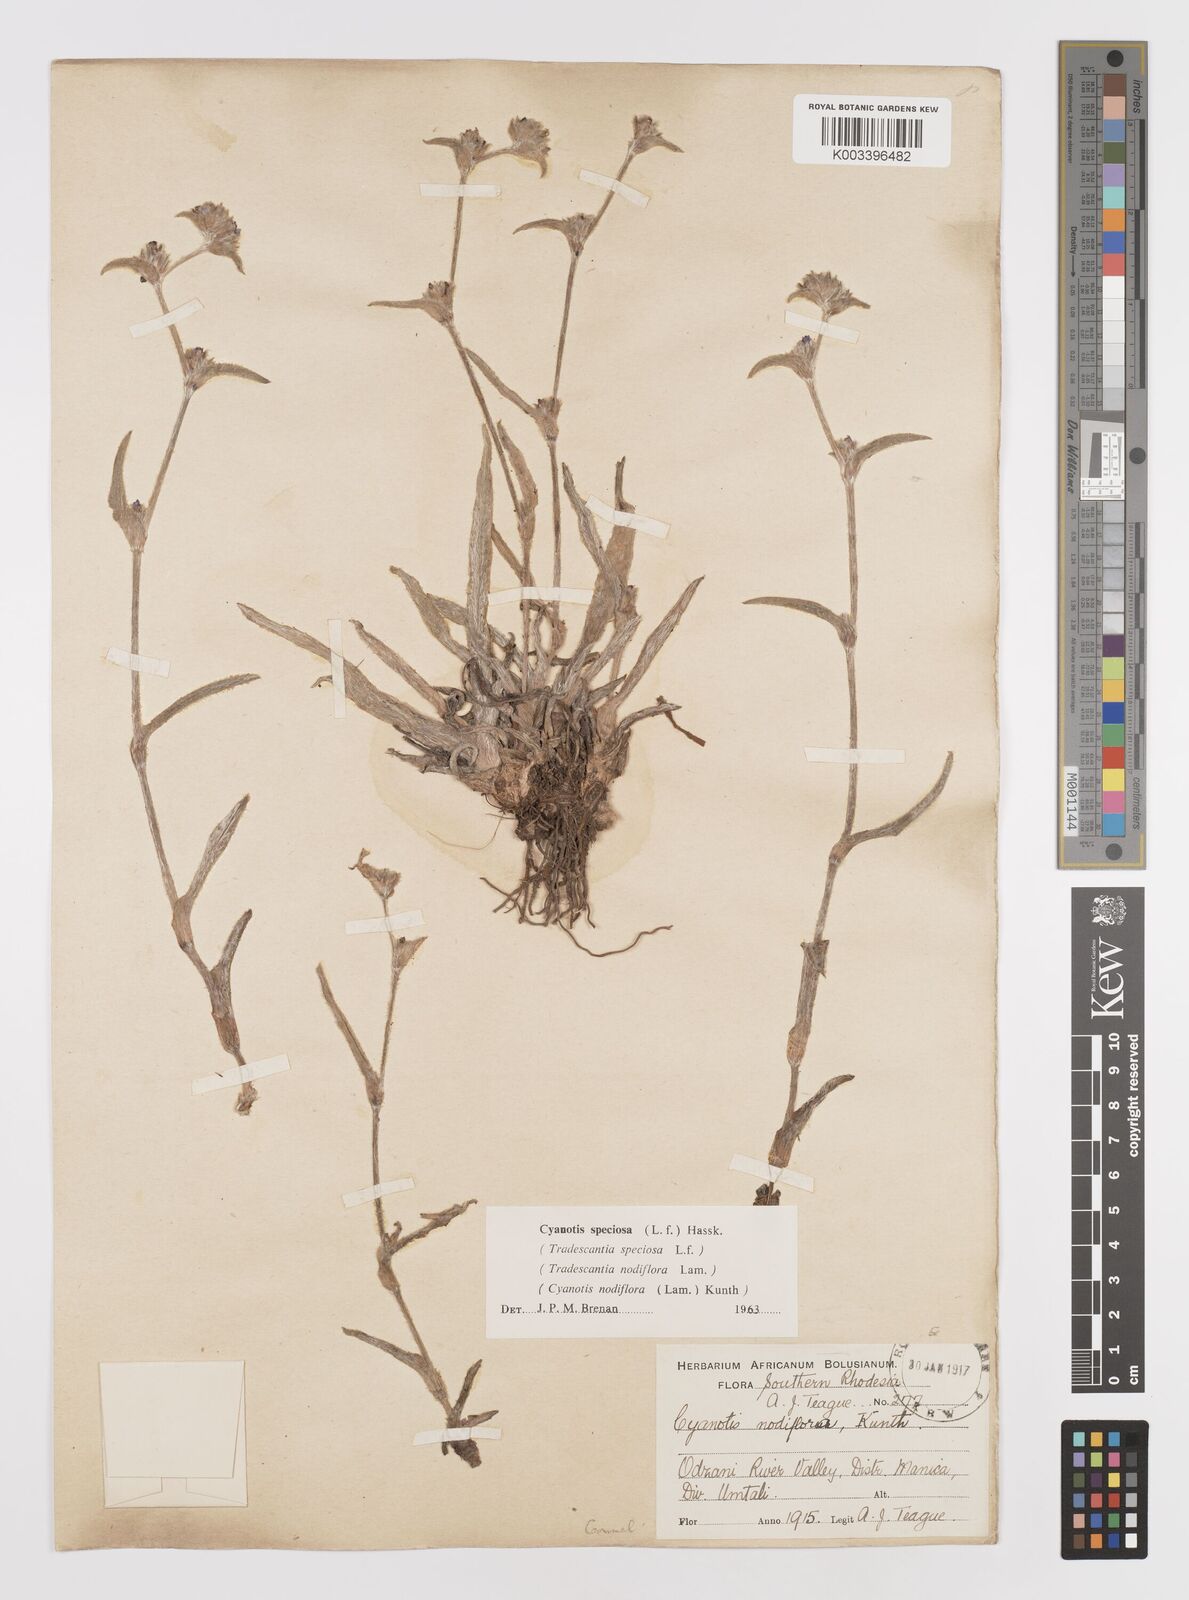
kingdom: Plantae
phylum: Tracheophyta
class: Liliopsida
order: Commelinales
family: Commelinaceae
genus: Cyanotis
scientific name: Cyanotis speciosa
